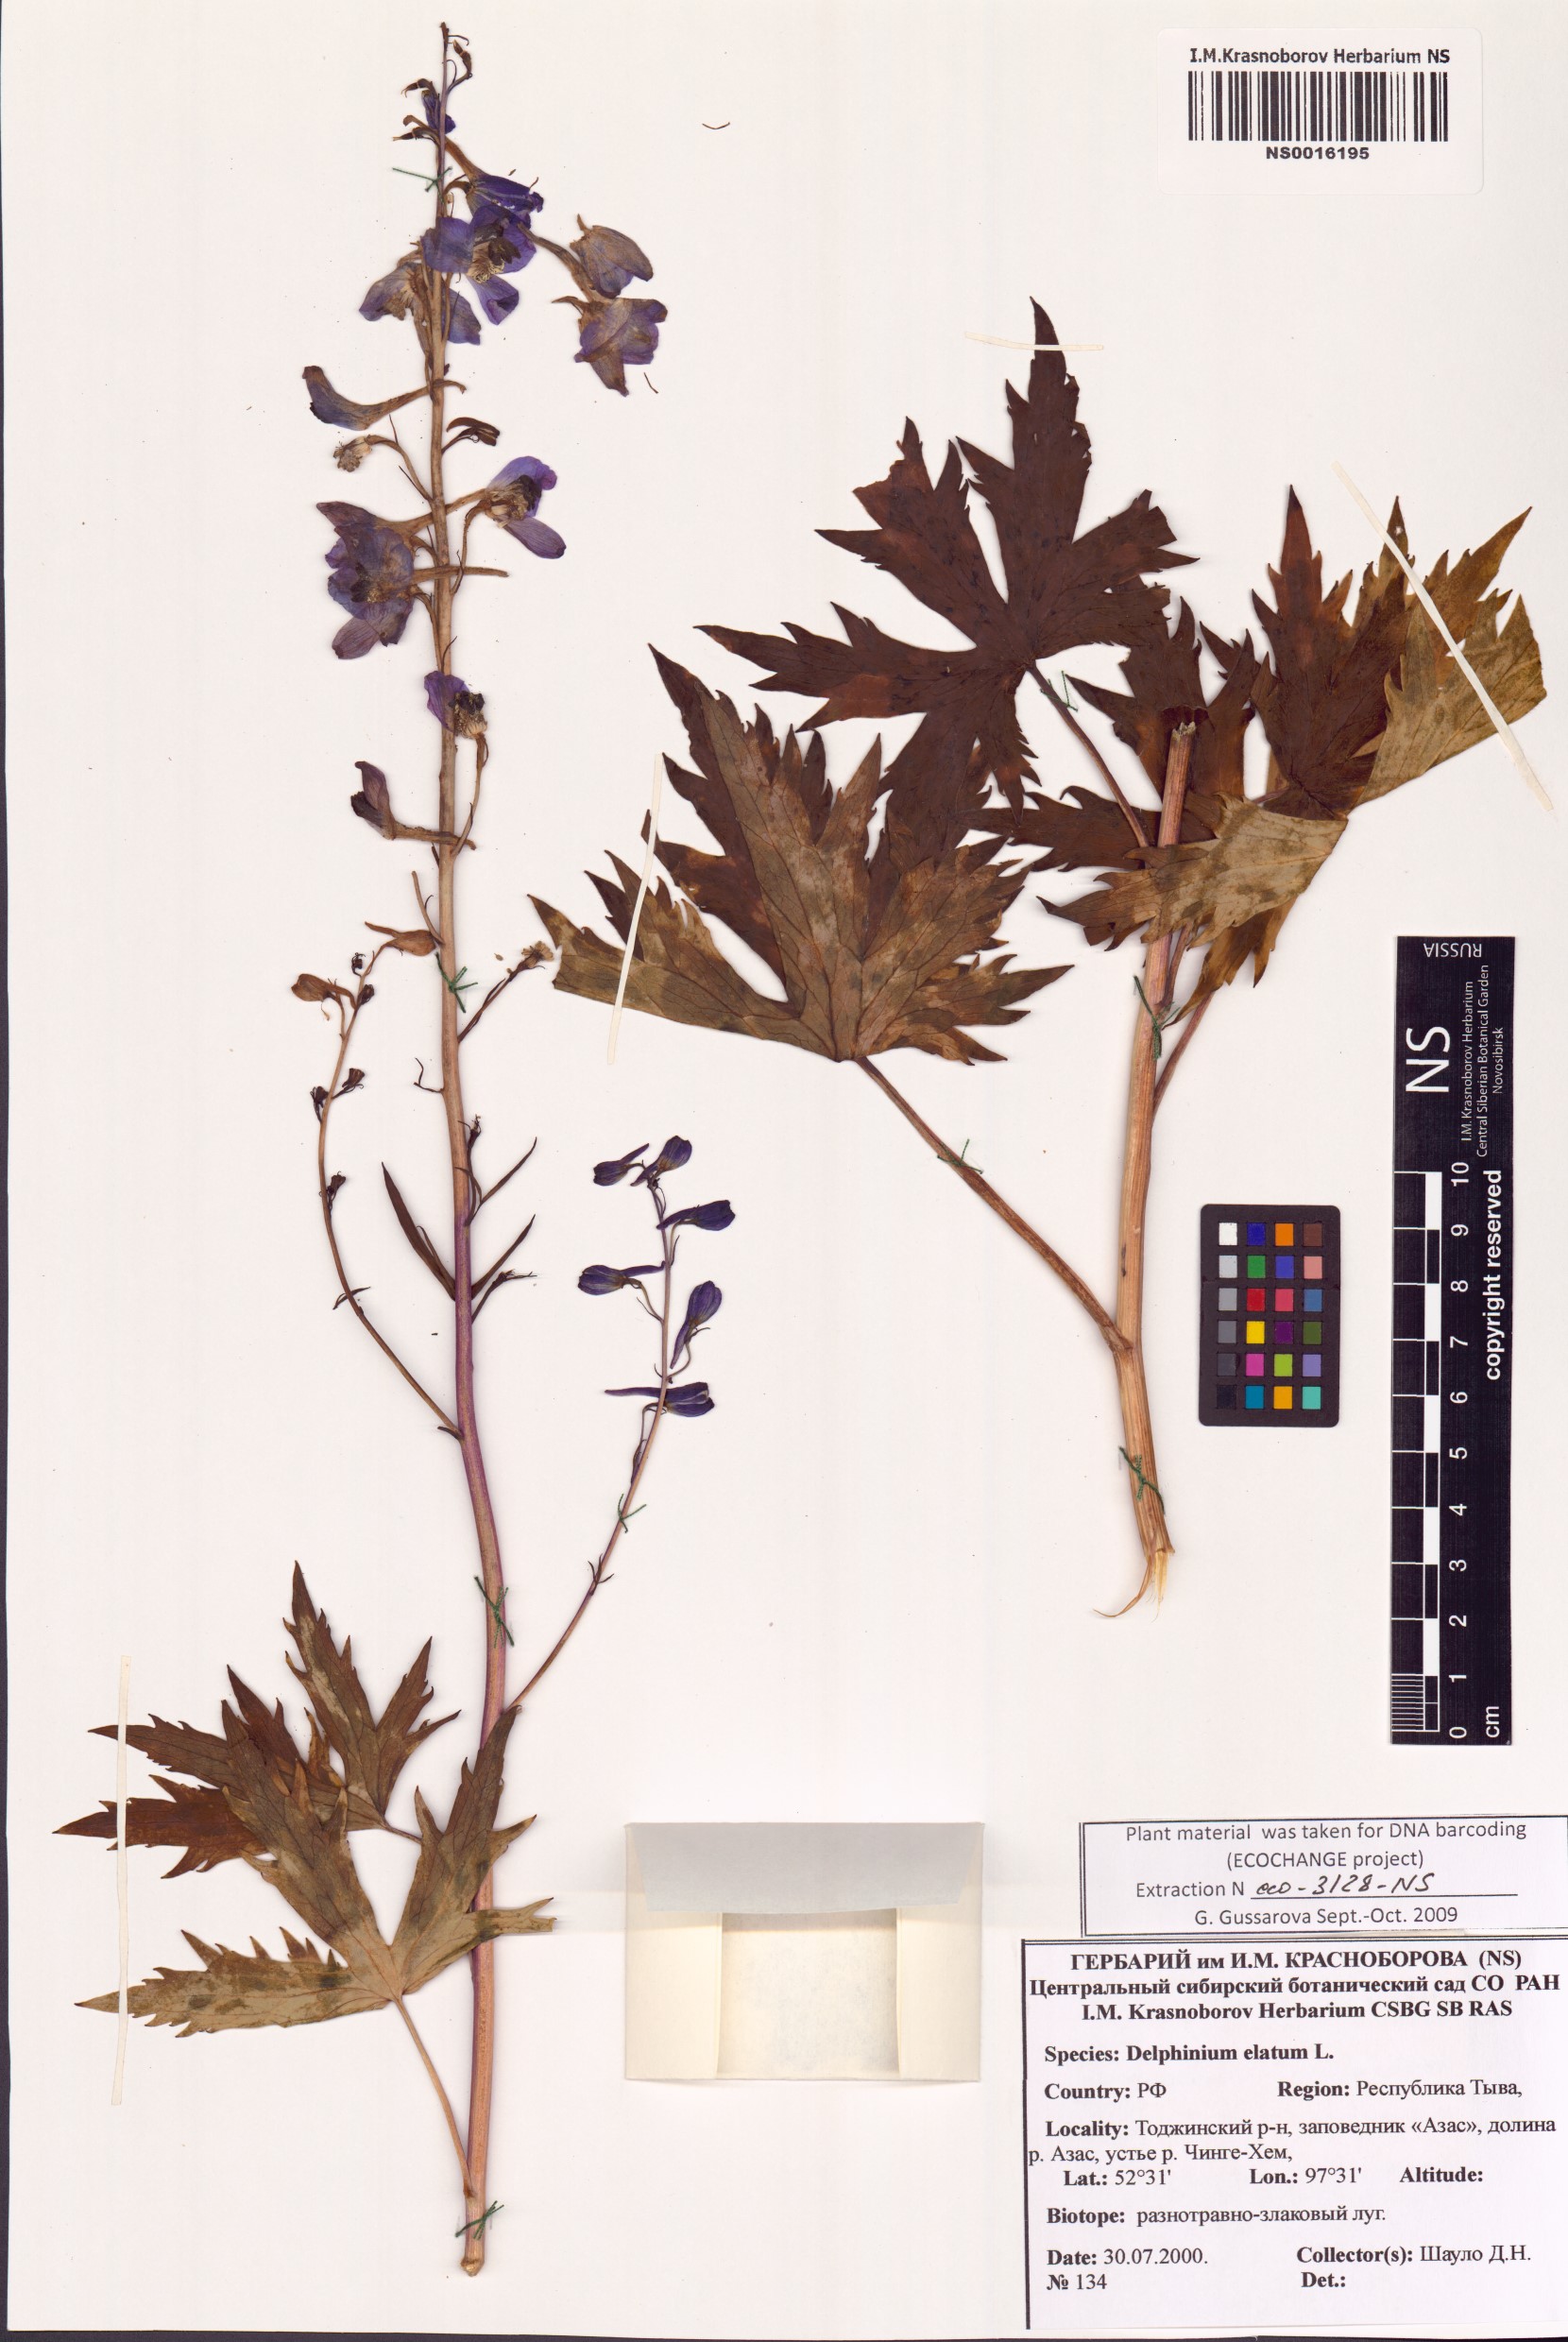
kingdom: Plantae
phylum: Tracheophyta
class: Magnoliopsida
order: Ranunculales
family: Ranunculaceae
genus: Delphinium
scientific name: Delphinium elatum
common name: Candle larkspur
